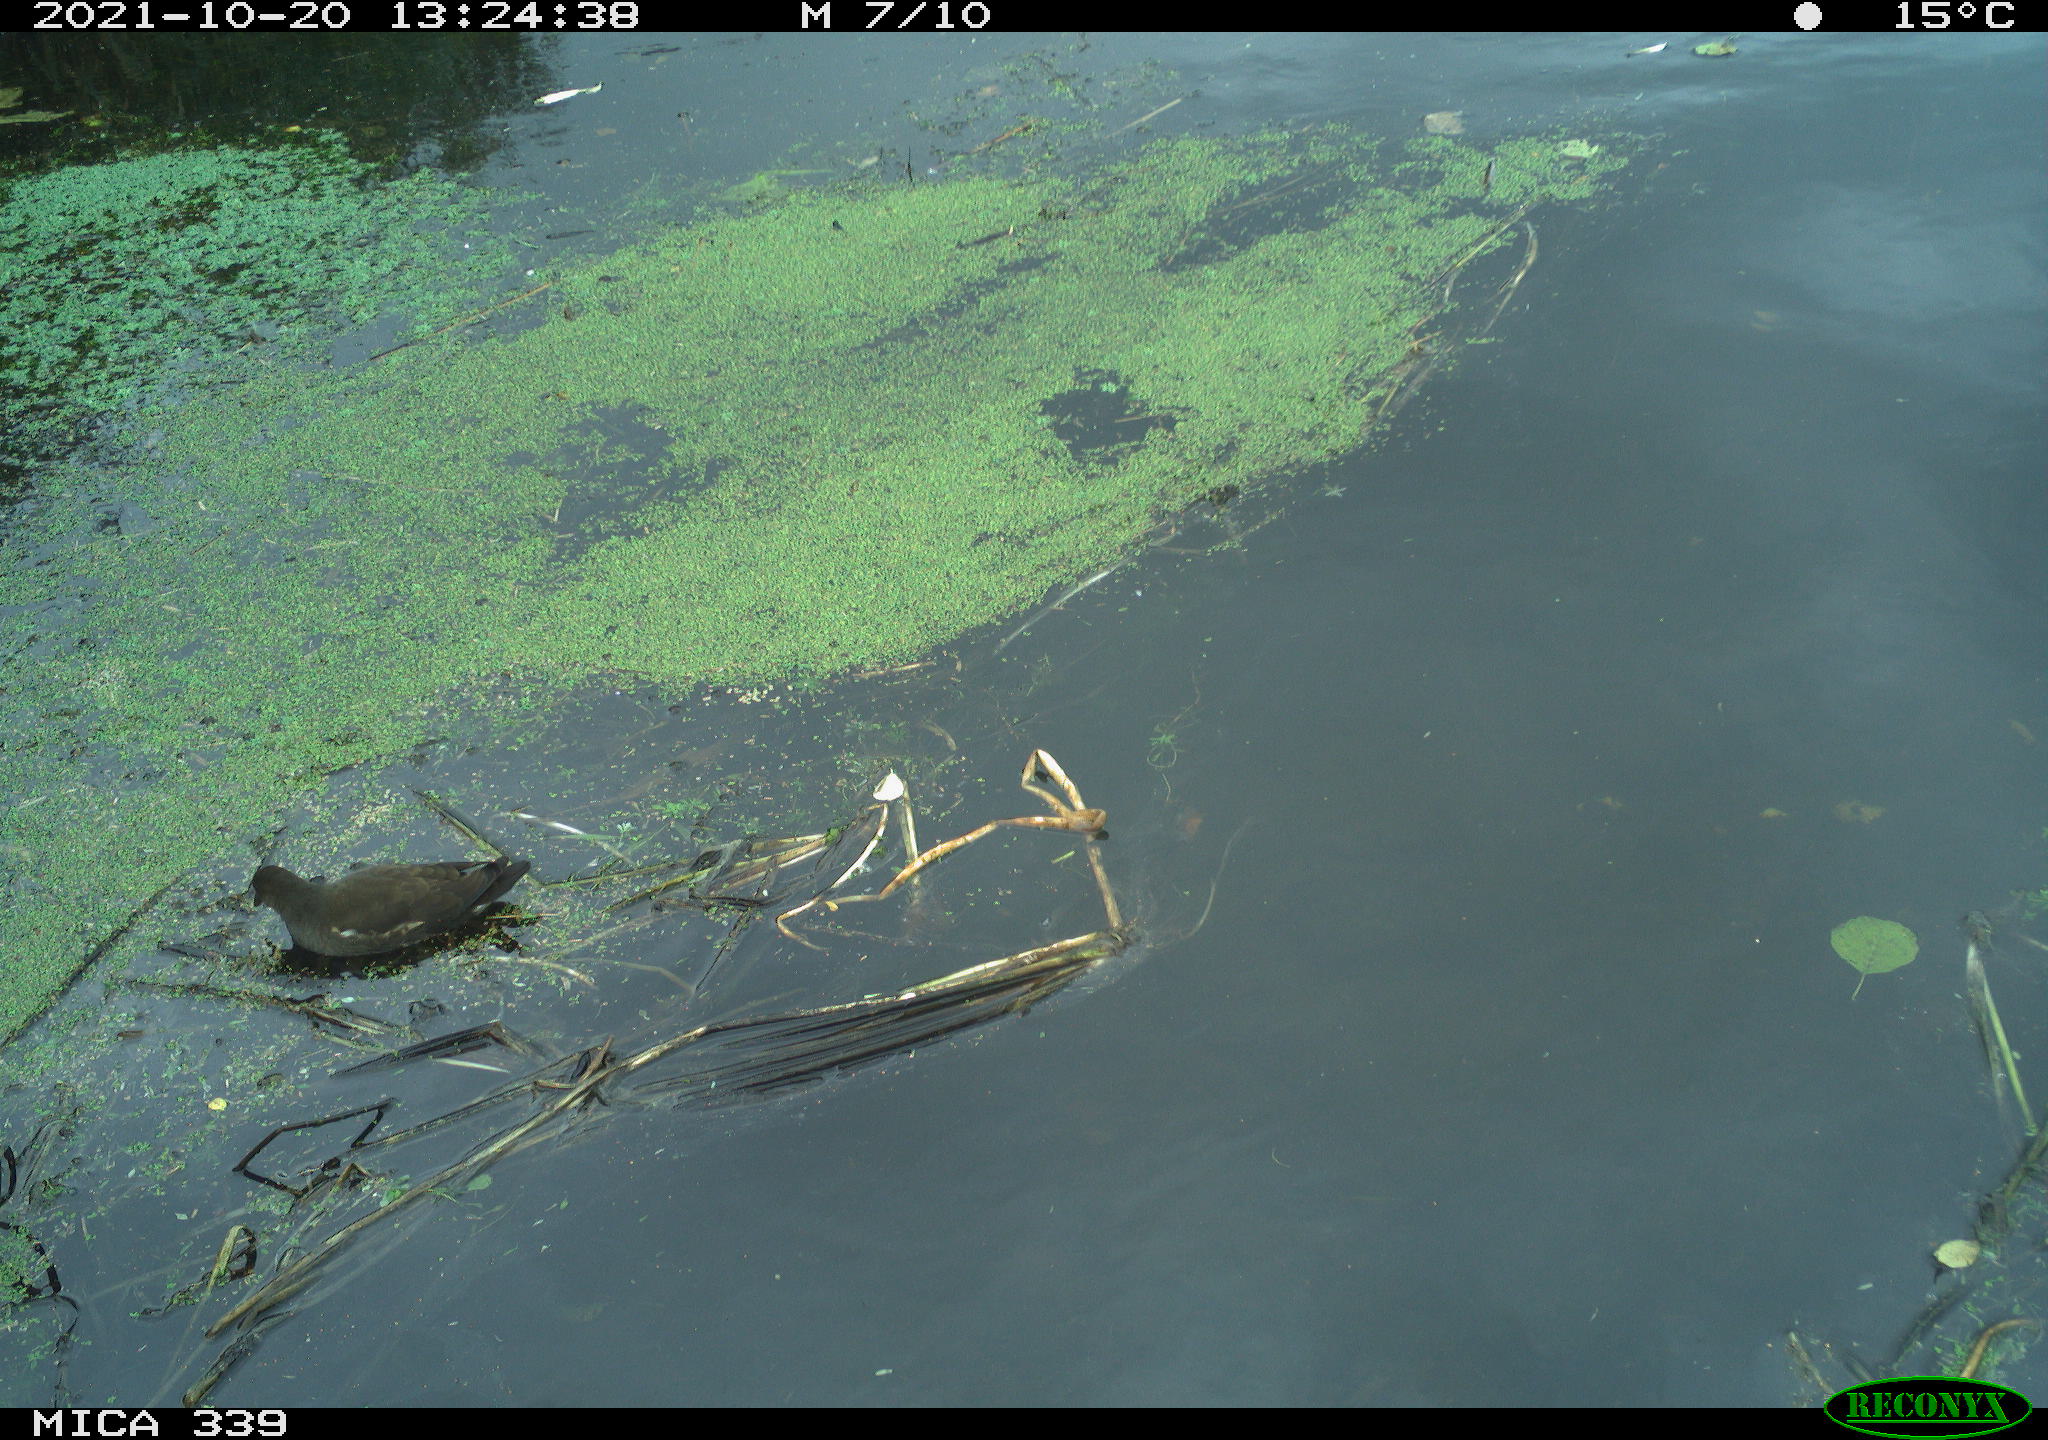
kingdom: Animalia
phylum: Chordata
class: Aves
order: Gruiformes
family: Rallidae
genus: Gallinula
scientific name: Gallinula chloropus
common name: Common moorhen
